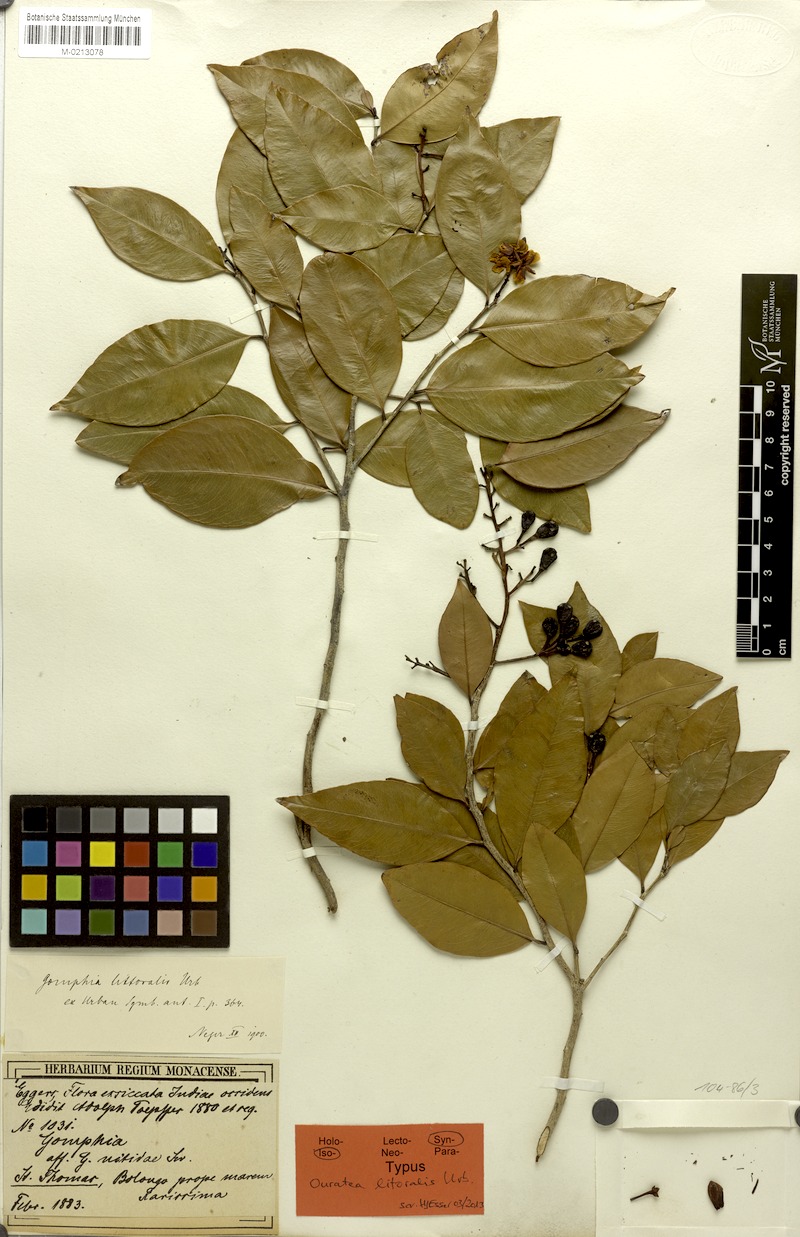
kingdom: Plantae
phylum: Tracheophyta
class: Magnoliopsida
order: Malpighiales
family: Ochnaceae
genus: Ouratea
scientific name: Ouratea litoralis
